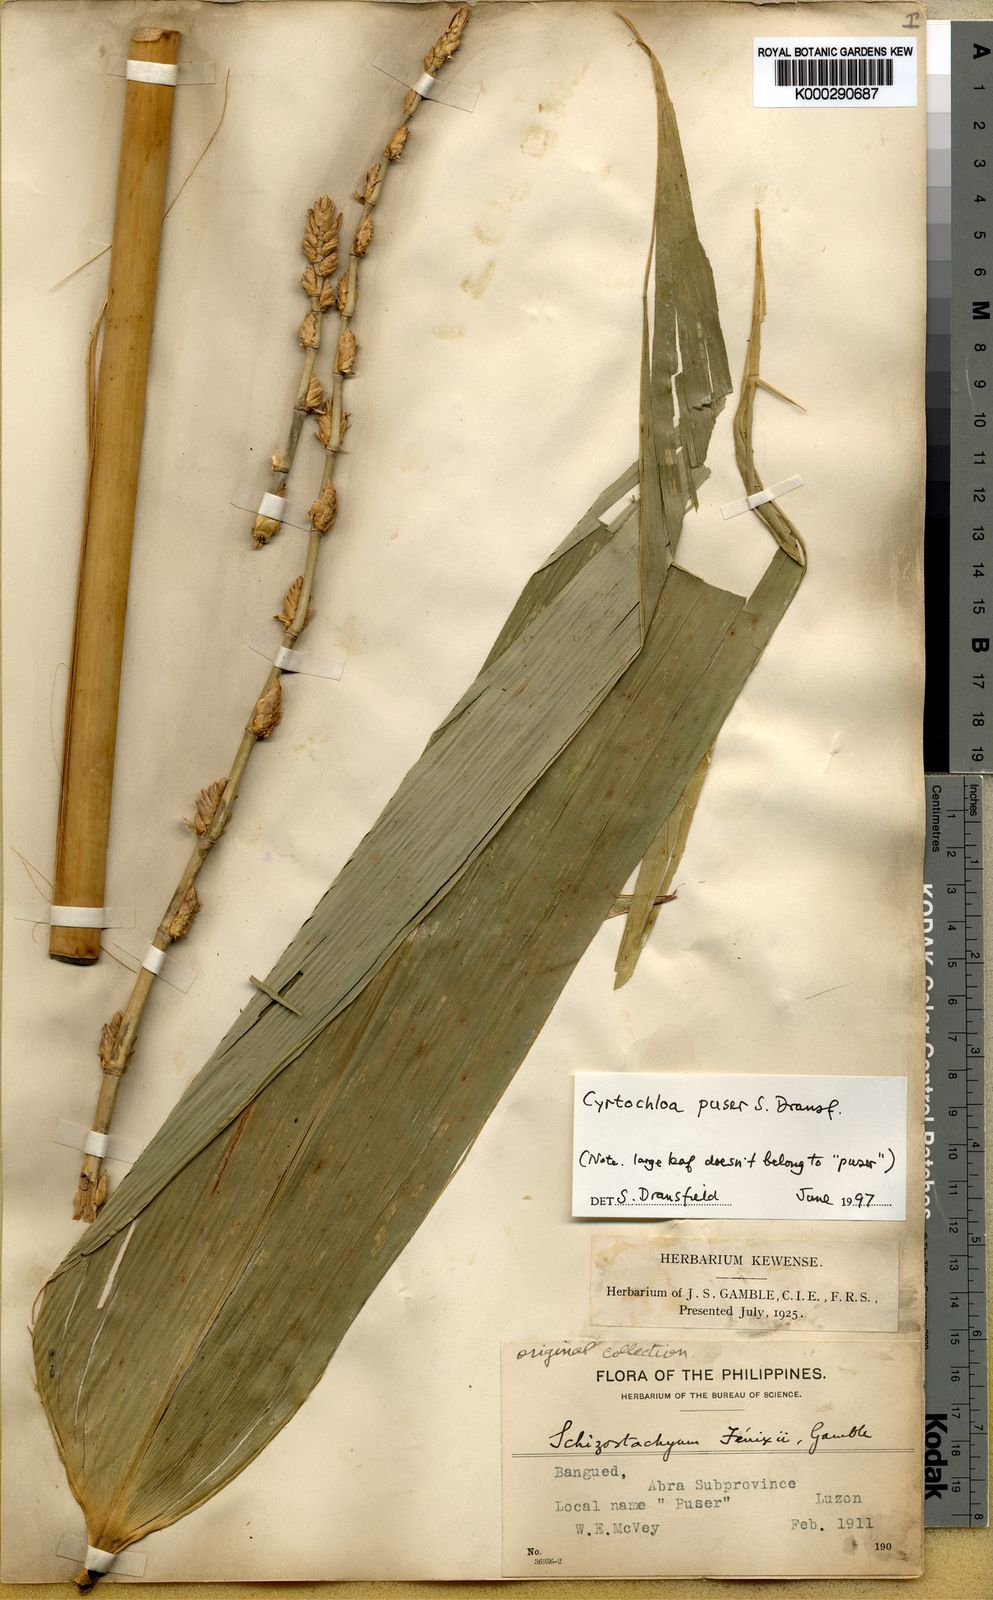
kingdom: Plantae
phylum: Tracheophyta
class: Liliopsida
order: Poales
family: Poaceae
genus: Cyrtochloa
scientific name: Cyrtochloa puser
